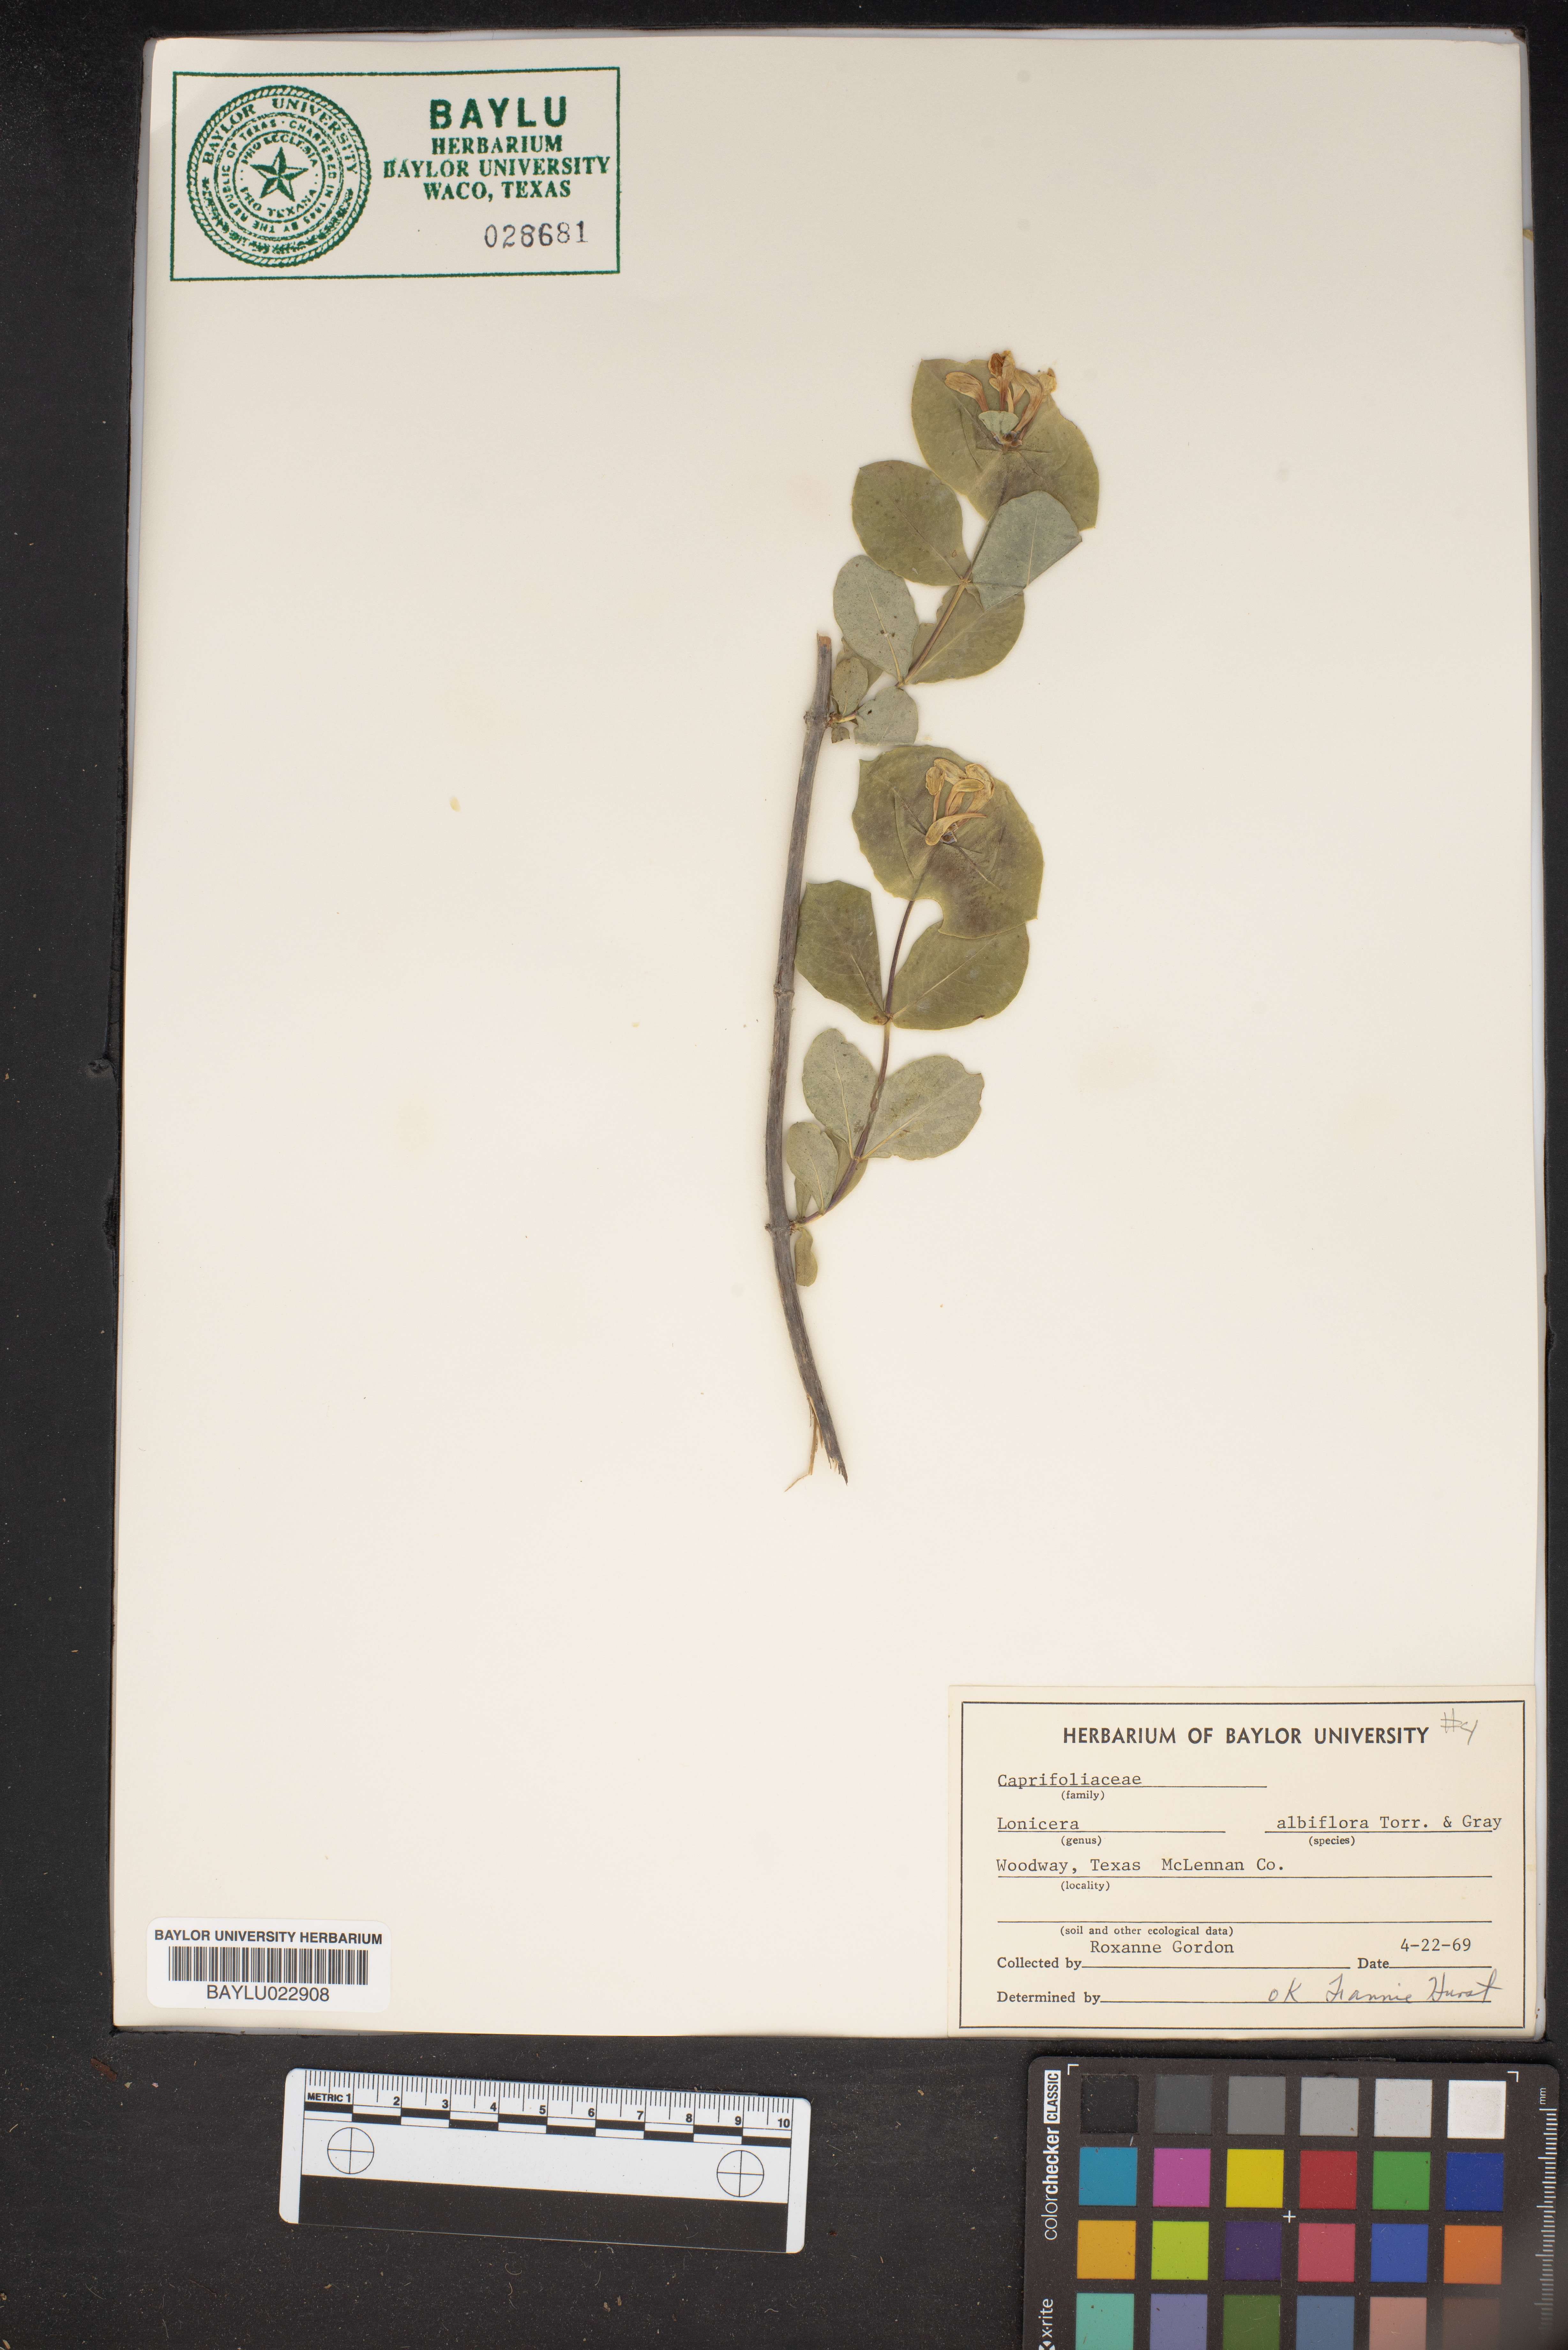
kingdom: Plantae
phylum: Tracheophyta
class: Magnoliopsida
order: Dipsacales
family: Caprifoliaceae
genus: Lonicera
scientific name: Lonicera albiflora
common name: White honeysuckle
